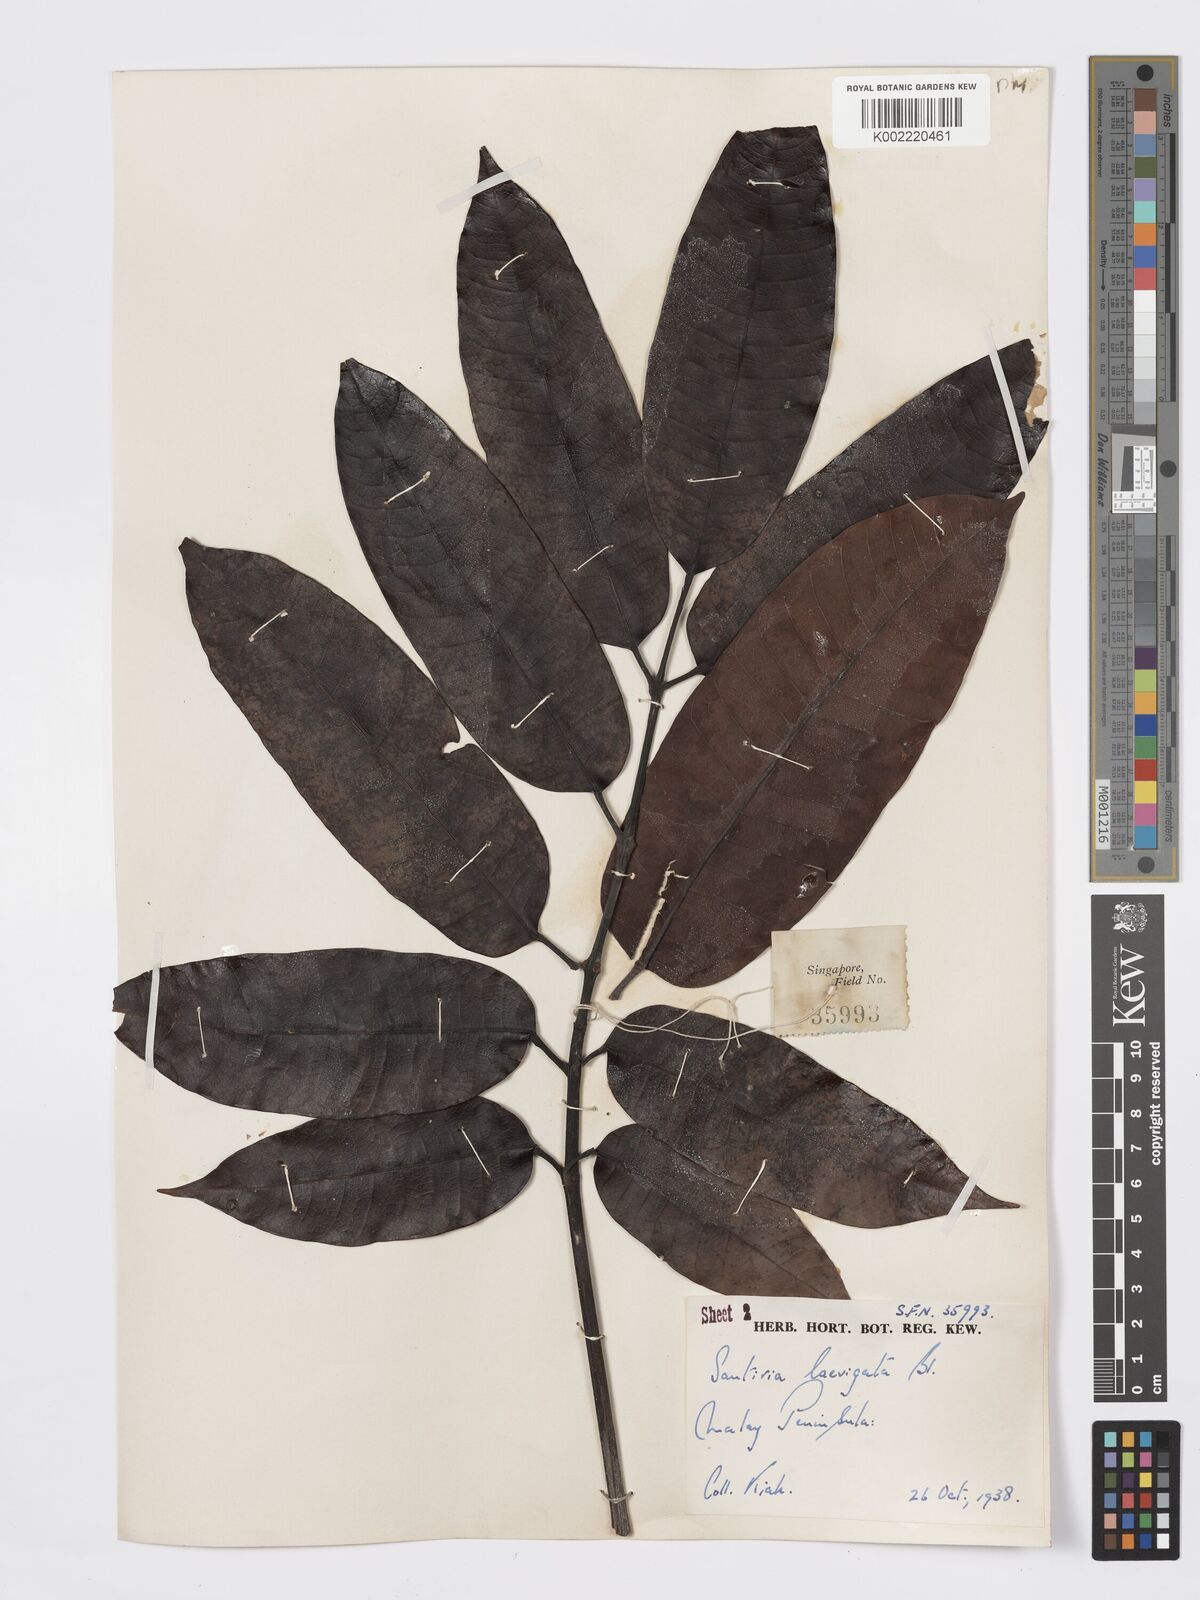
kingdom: Plantae
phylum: Tracheophyta
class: Magnoliopsida
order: Sapindales
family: Burseraceae
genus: Santiria
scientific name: Santiria laevigata
